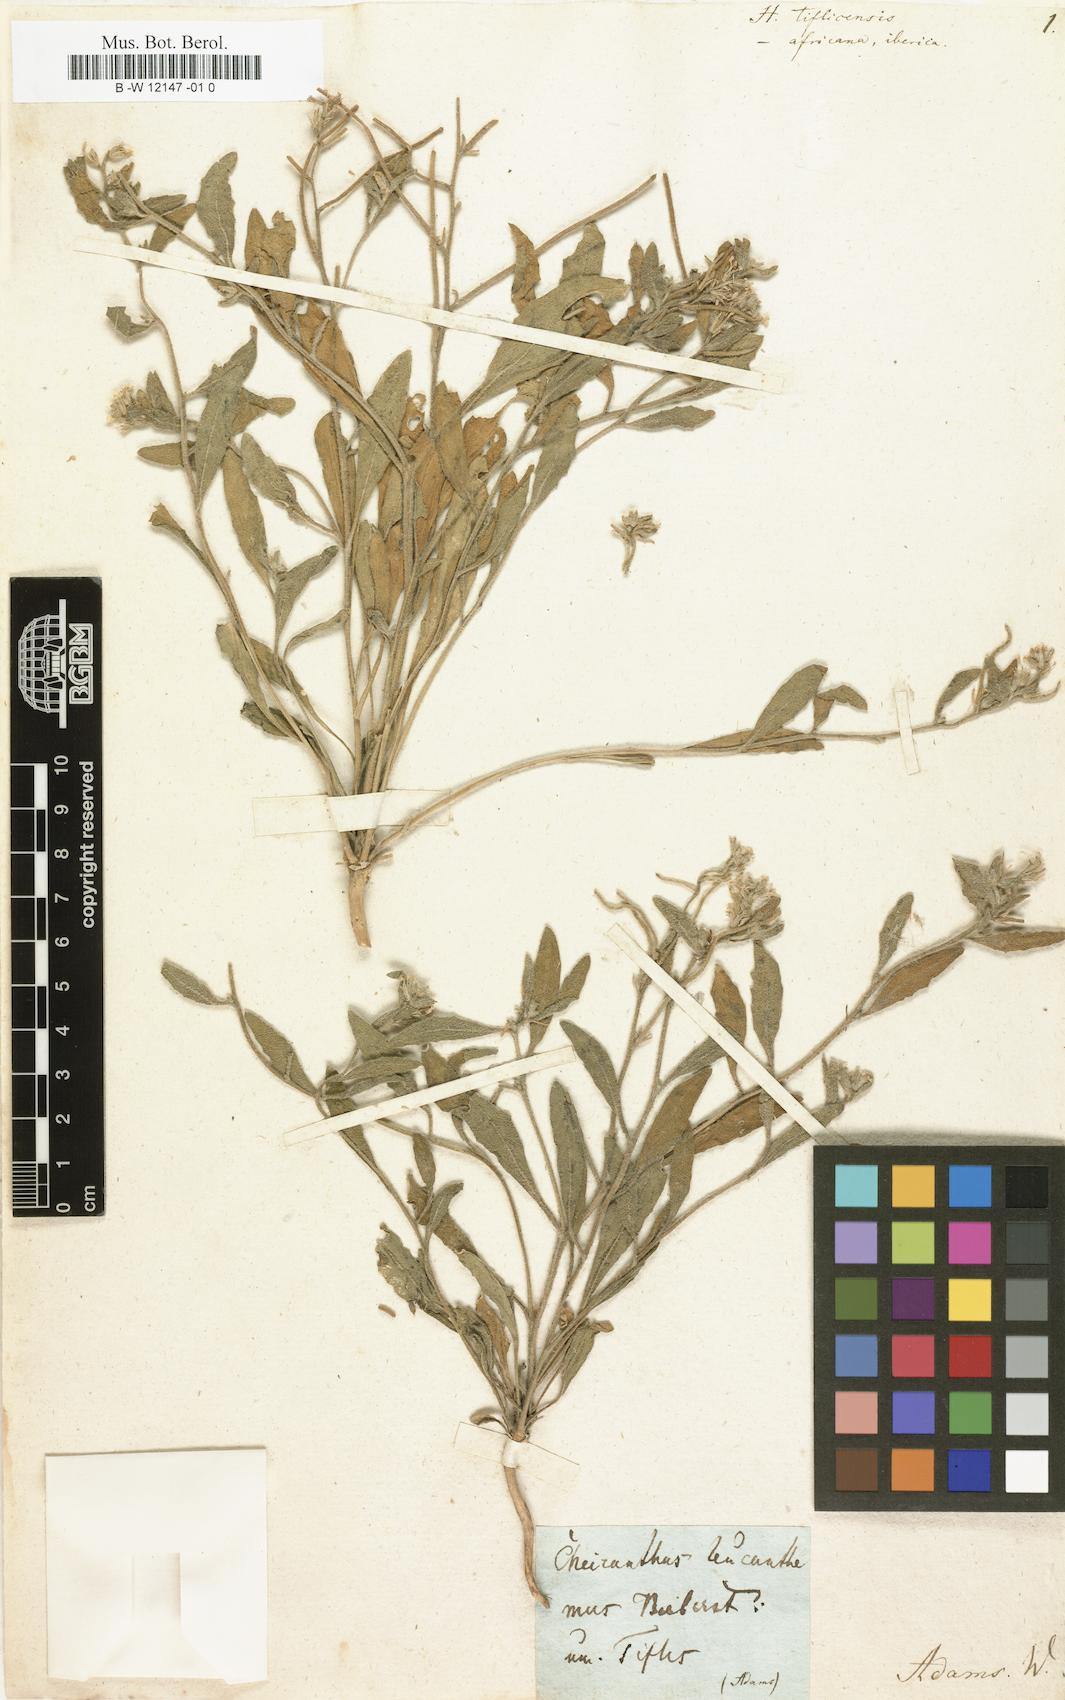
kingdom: Plantae
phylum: Tracheophyta
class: Magnoliopsida
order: Brassicales
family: Brassicaceae
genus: Strigosella
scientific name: Strigosella africana
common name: African mustard
